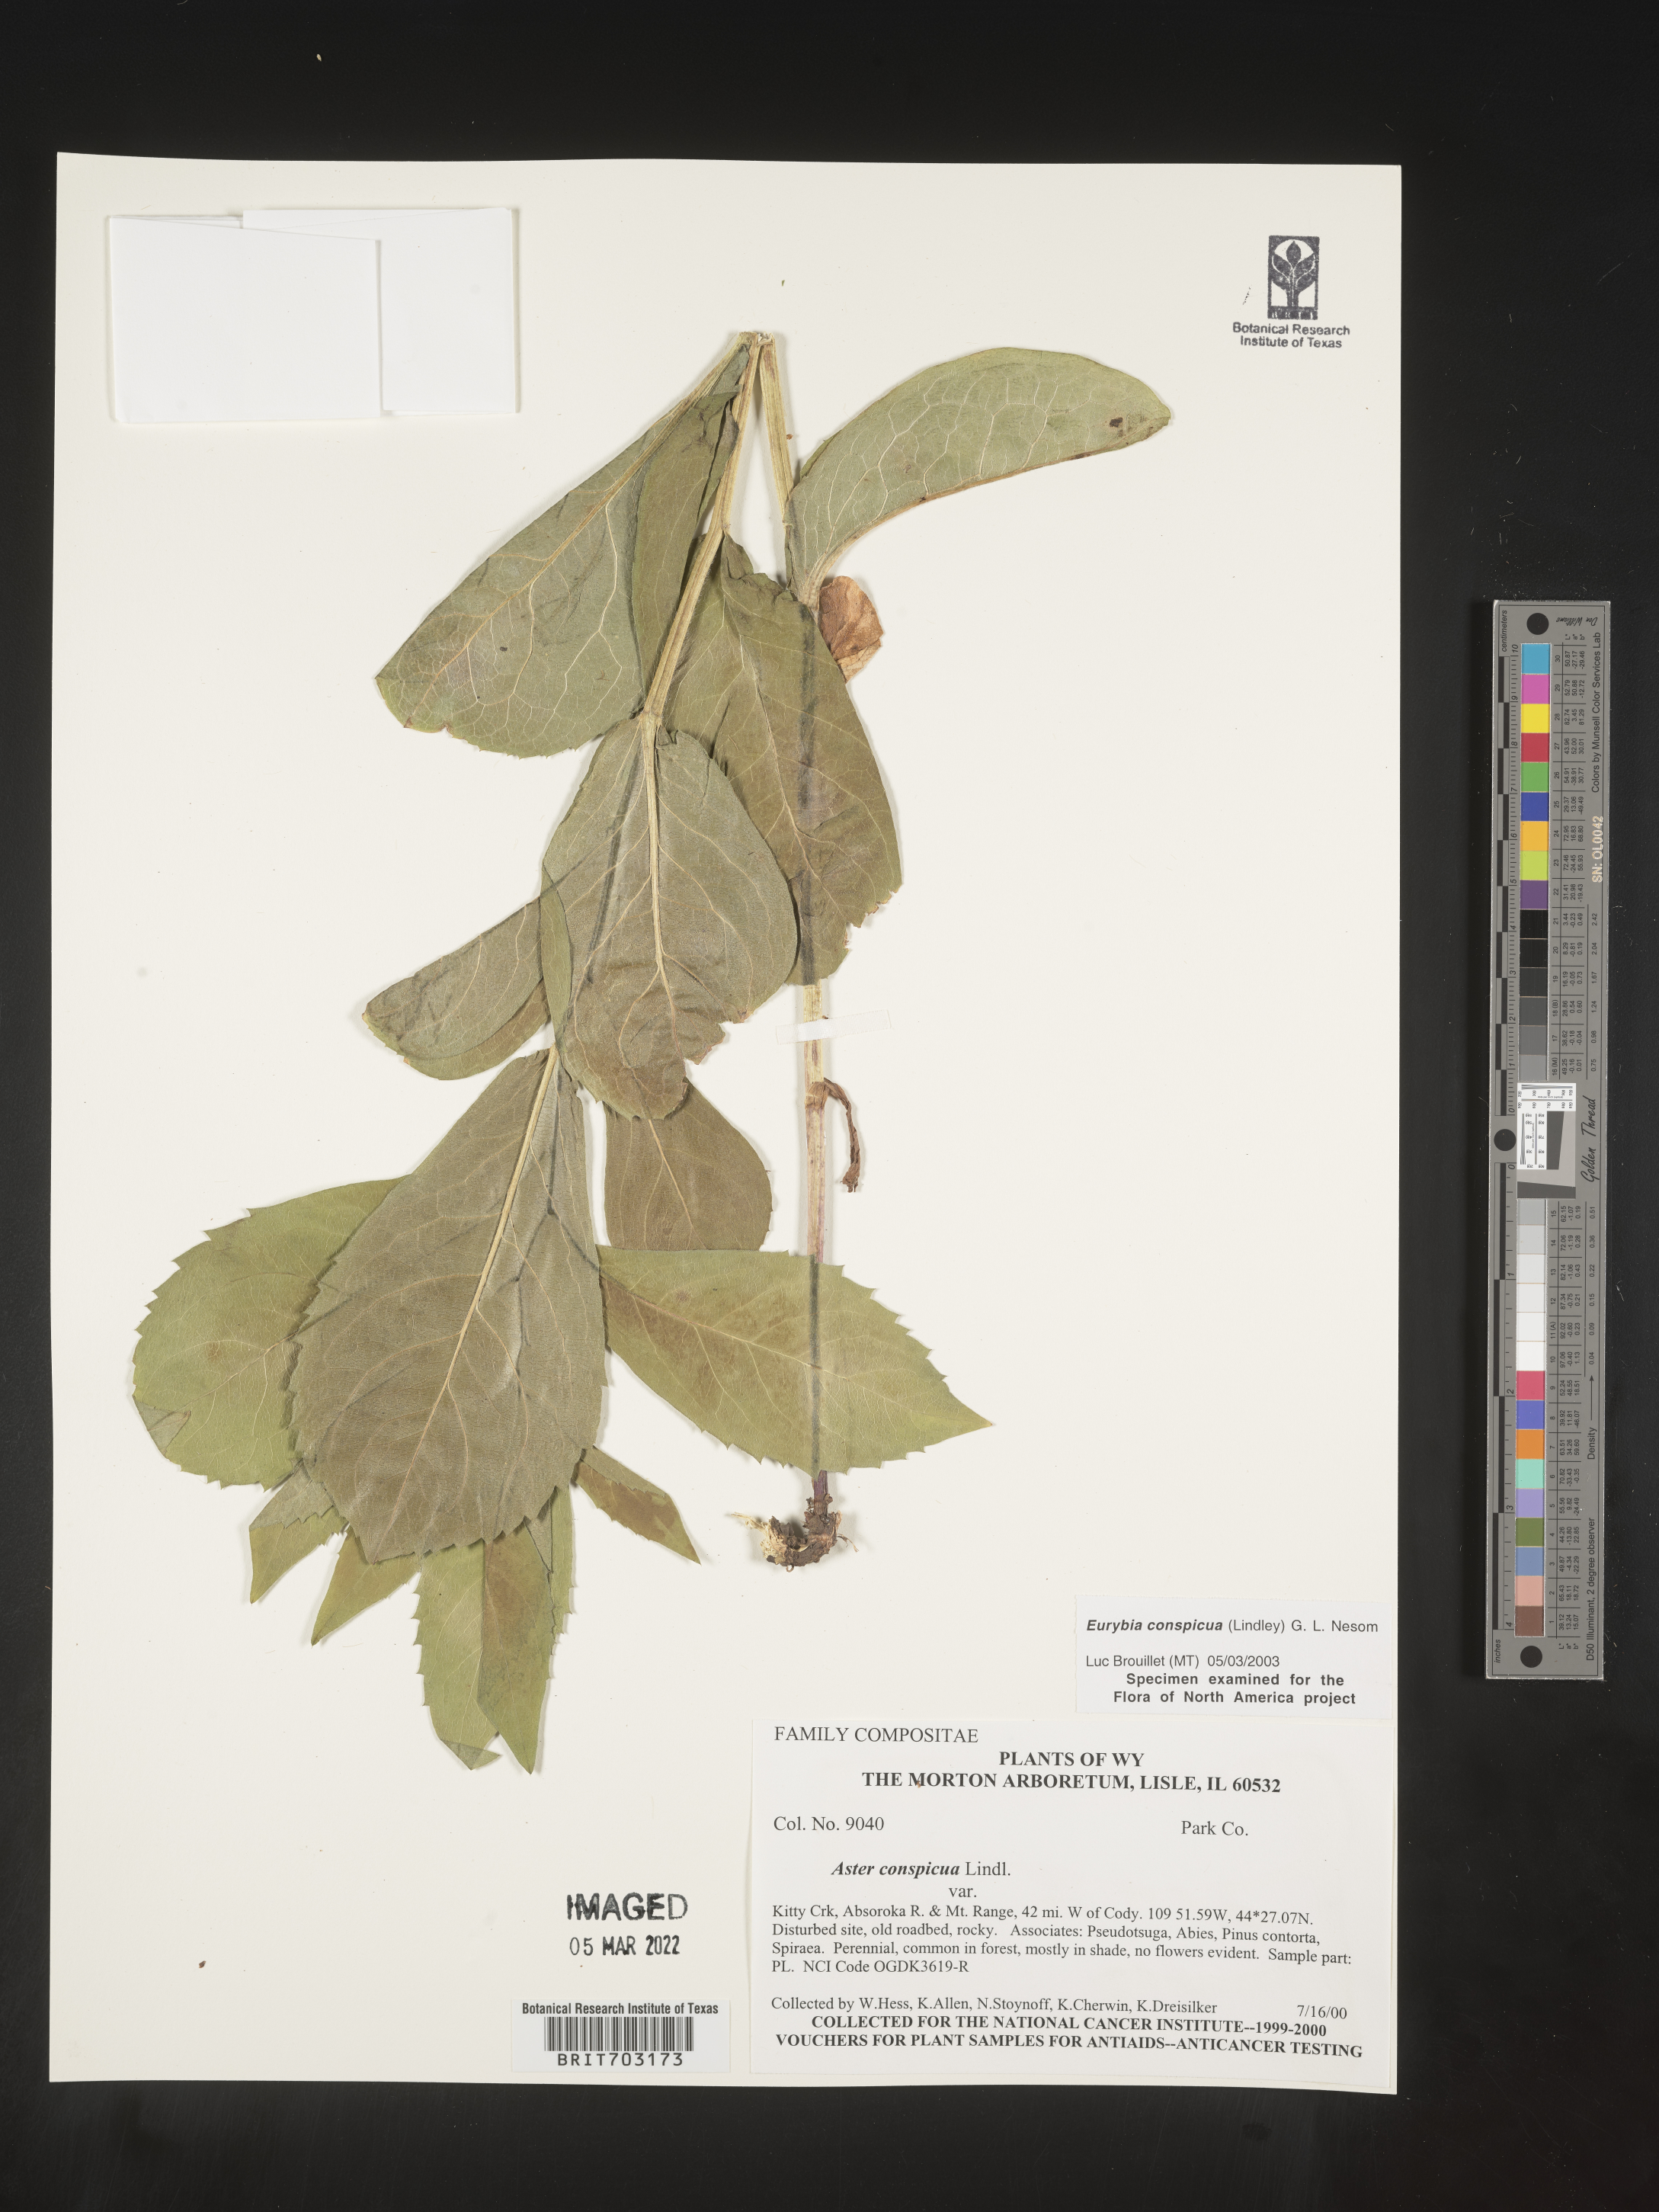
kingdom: Plantae
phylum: Tracheophyta
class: Magnoliopsida
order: Asterales
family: Asteraceae
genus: Eurybia
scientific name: Eurybia conspicua
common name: Showy aster
